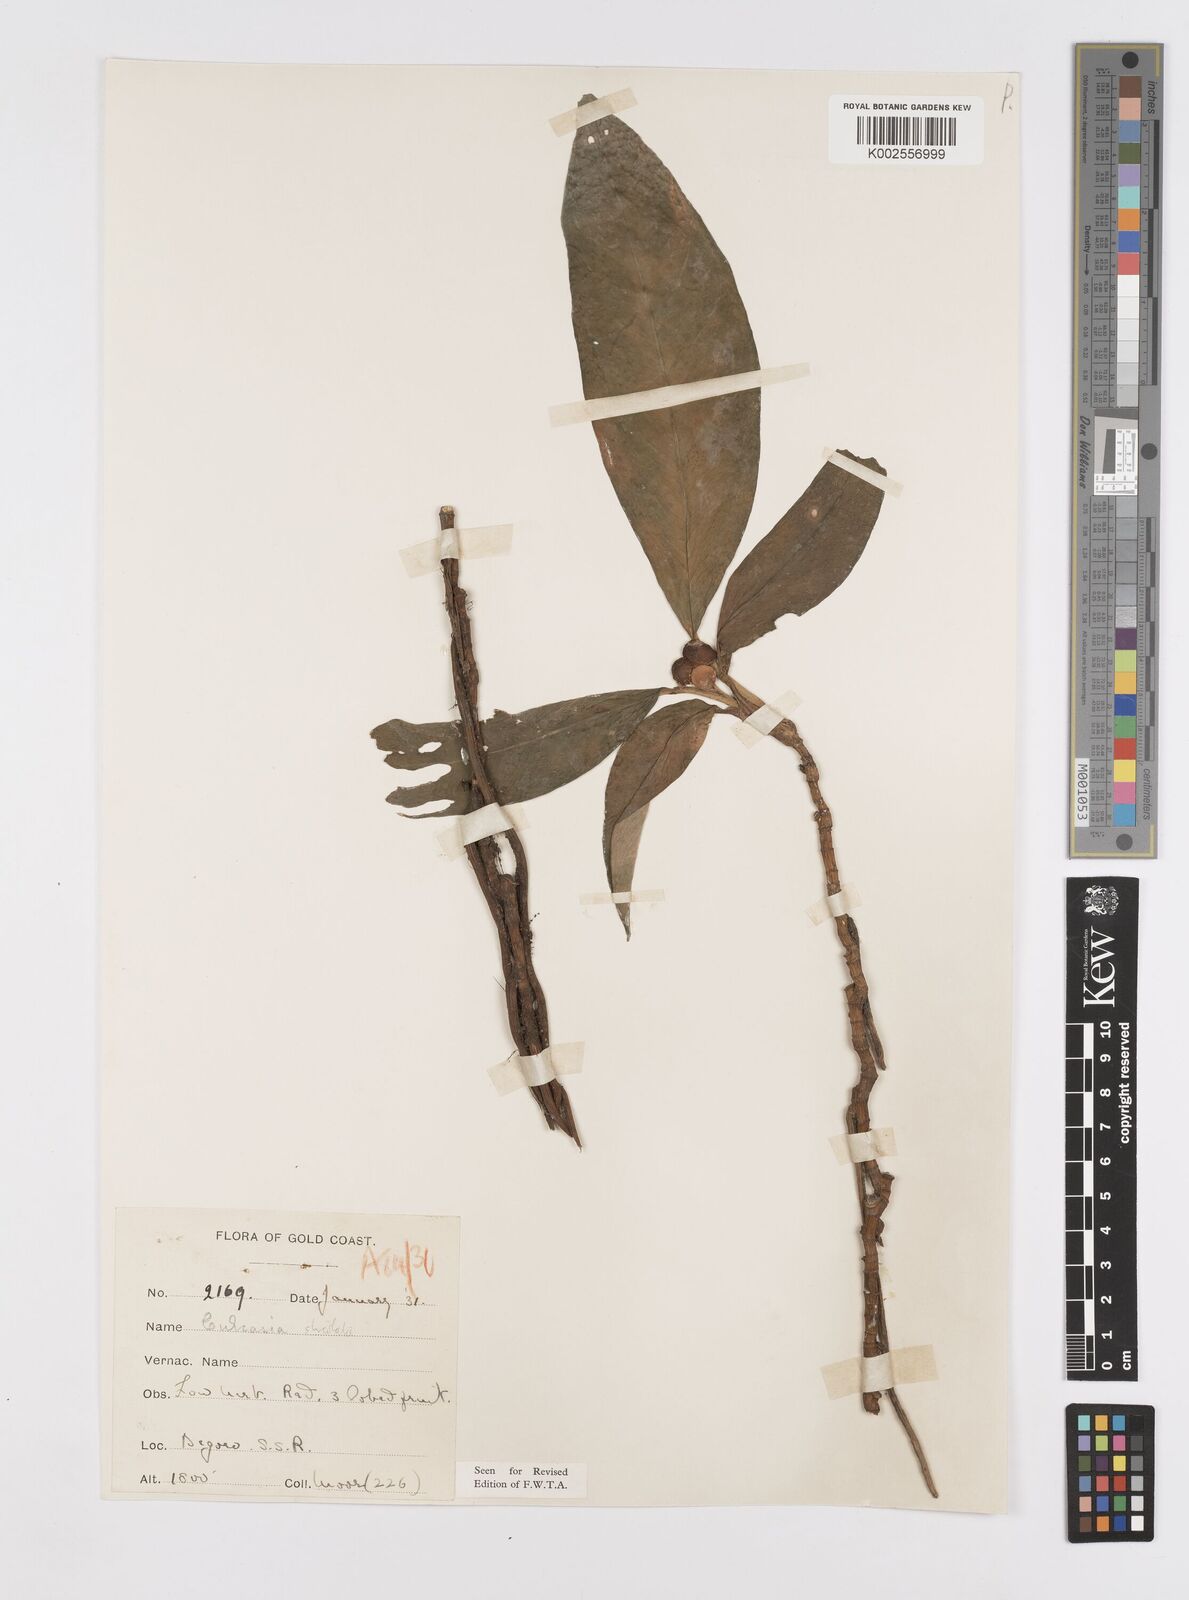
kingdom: Plantae
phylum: Tracheophyta
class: Liliopsida
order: Alismatales
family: Araceae
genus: Culcasia
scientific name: Culcasia striolata
